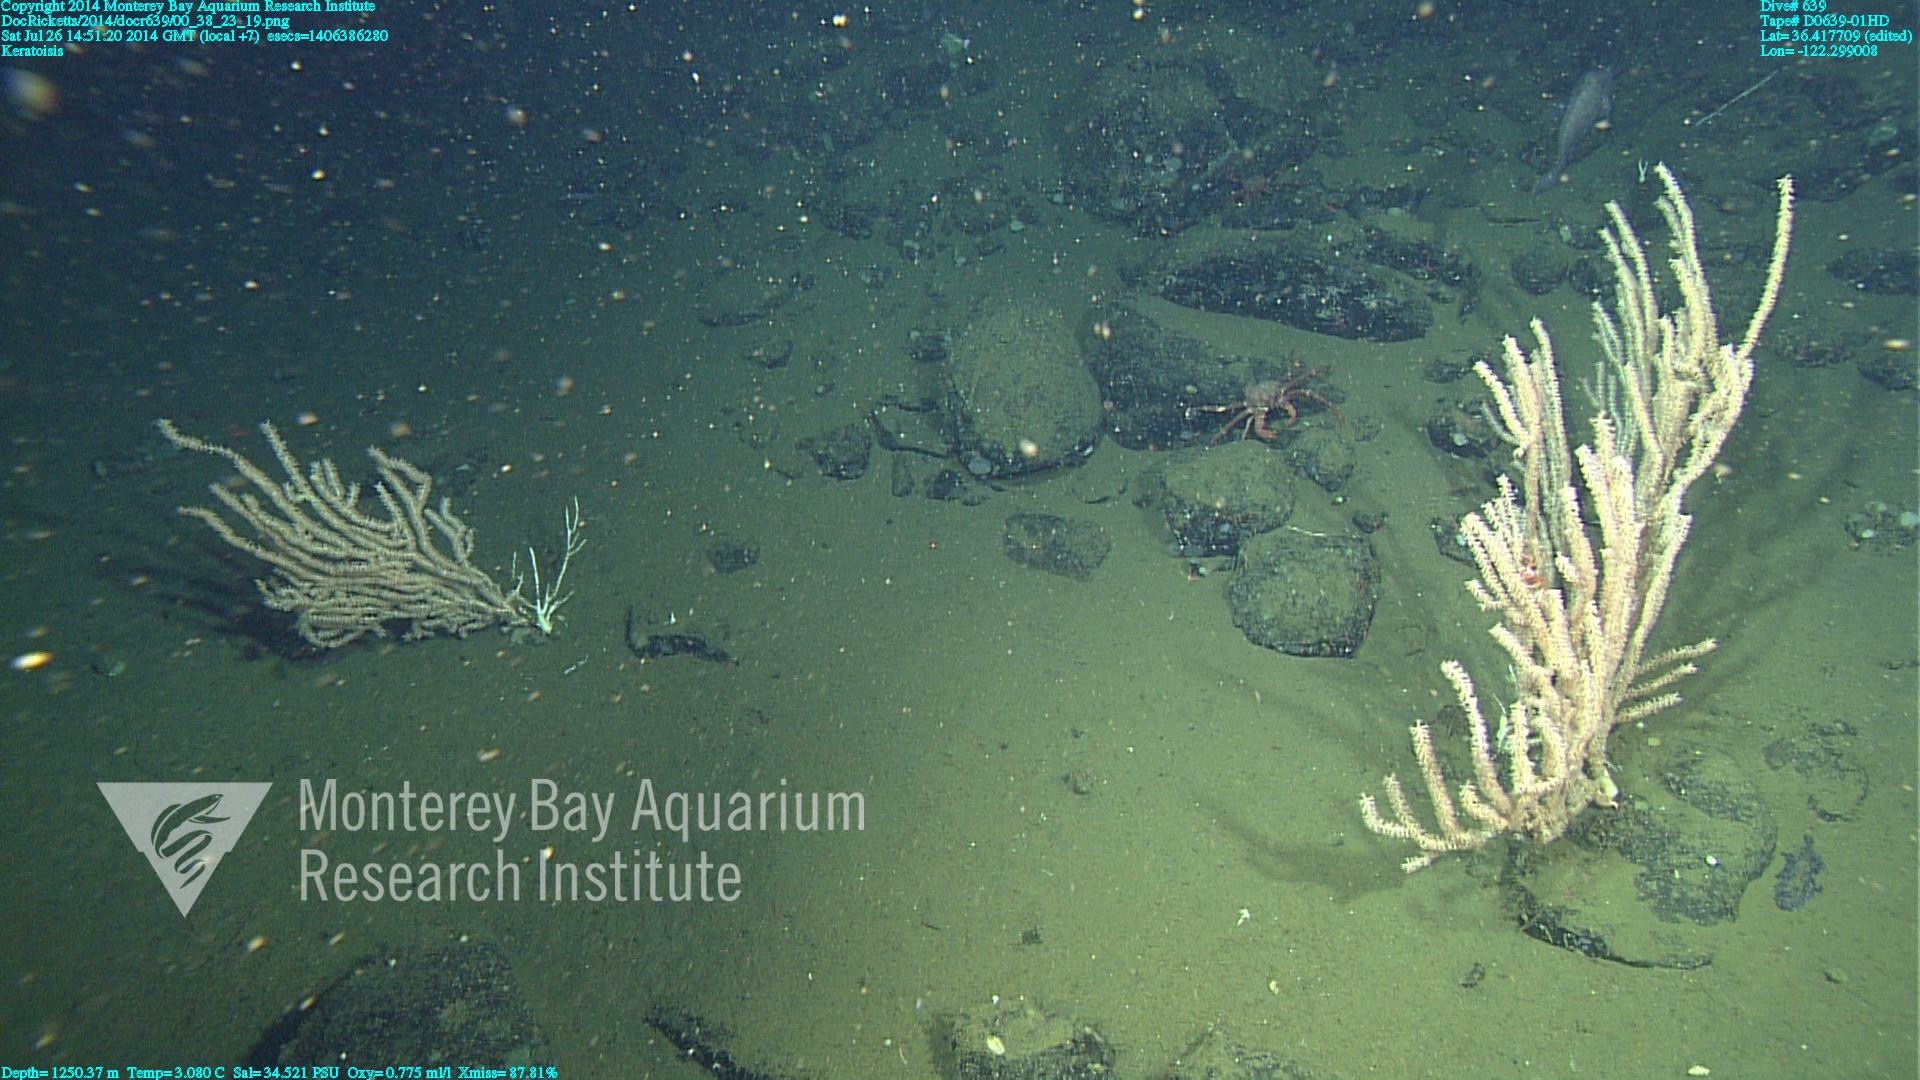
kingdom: Animalia
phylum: Cnidaria
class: Anthozoa
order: Scleralcyonacea
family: Keratoisididae
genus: Keratoisis
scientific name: Keratoisis
